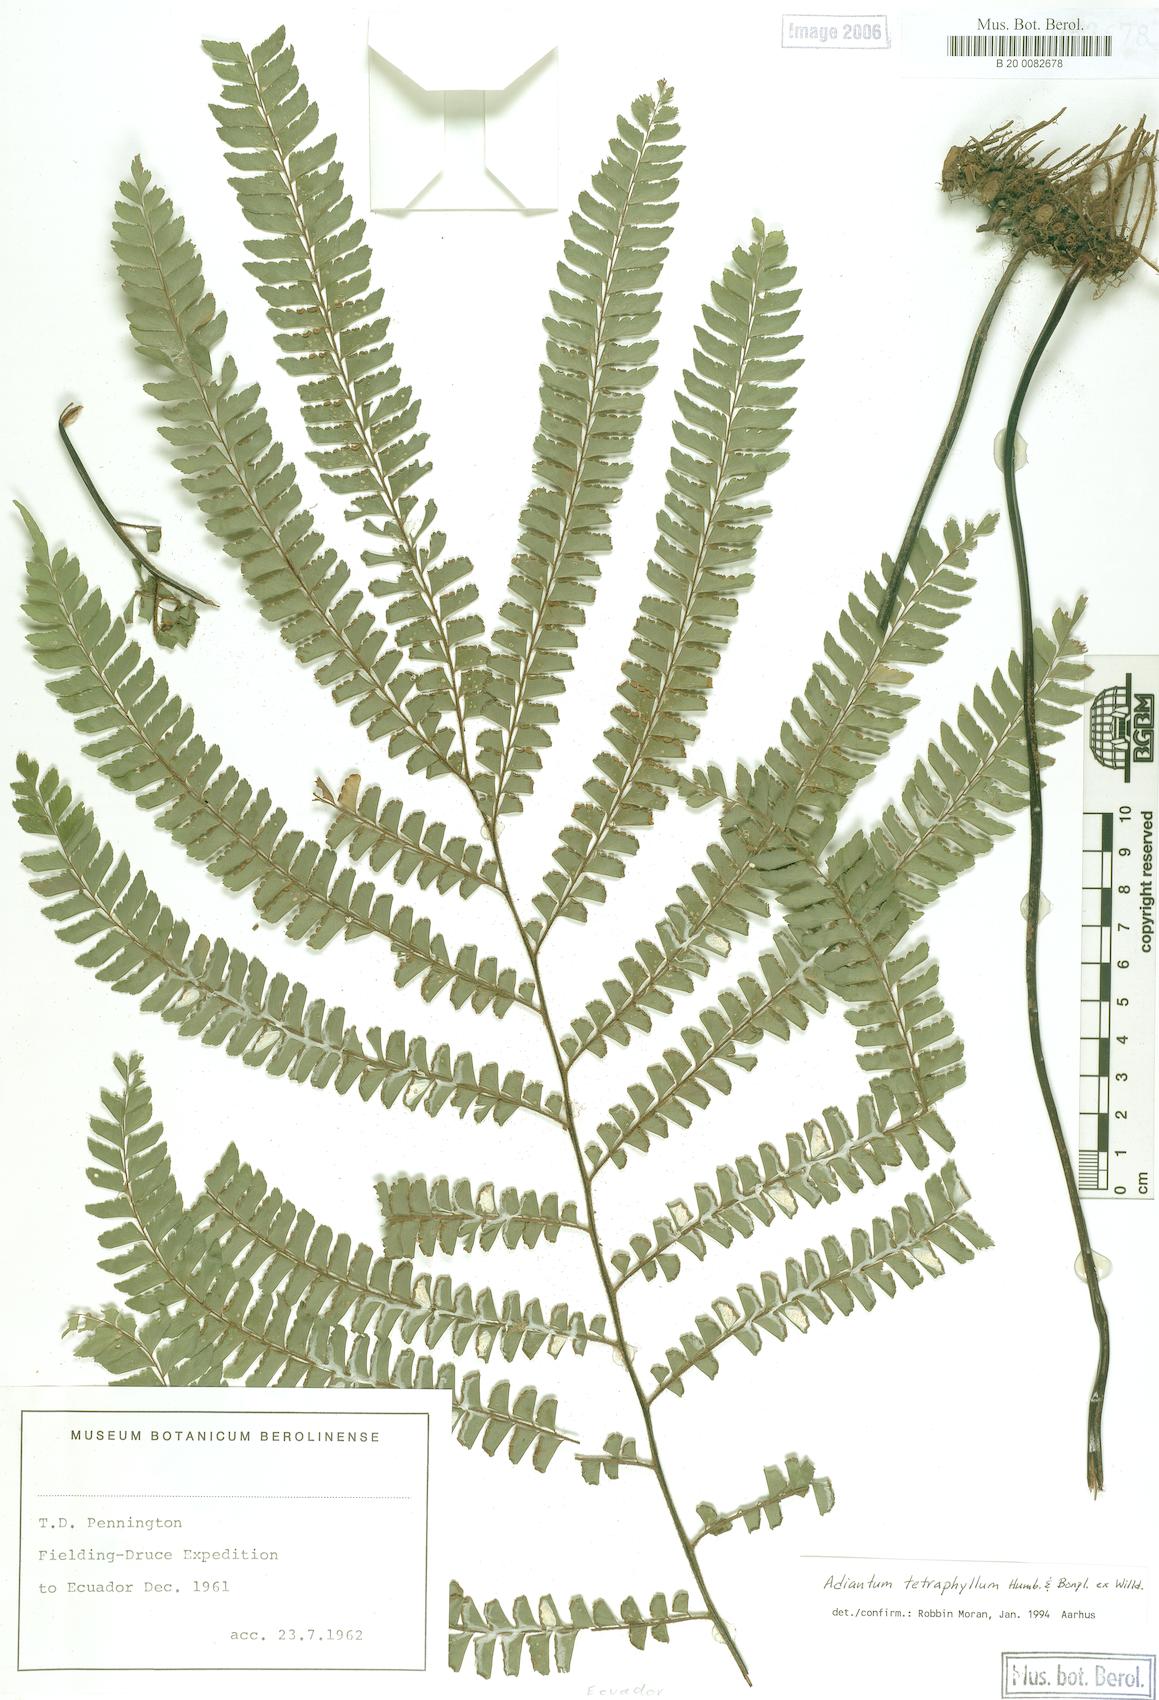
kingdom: Plantae
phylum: Tracheophyta
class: Polypodiopsida
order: Polypodiales
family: Pteridaceae
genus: Adiantum
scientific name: Adiantum tetraphyllum
